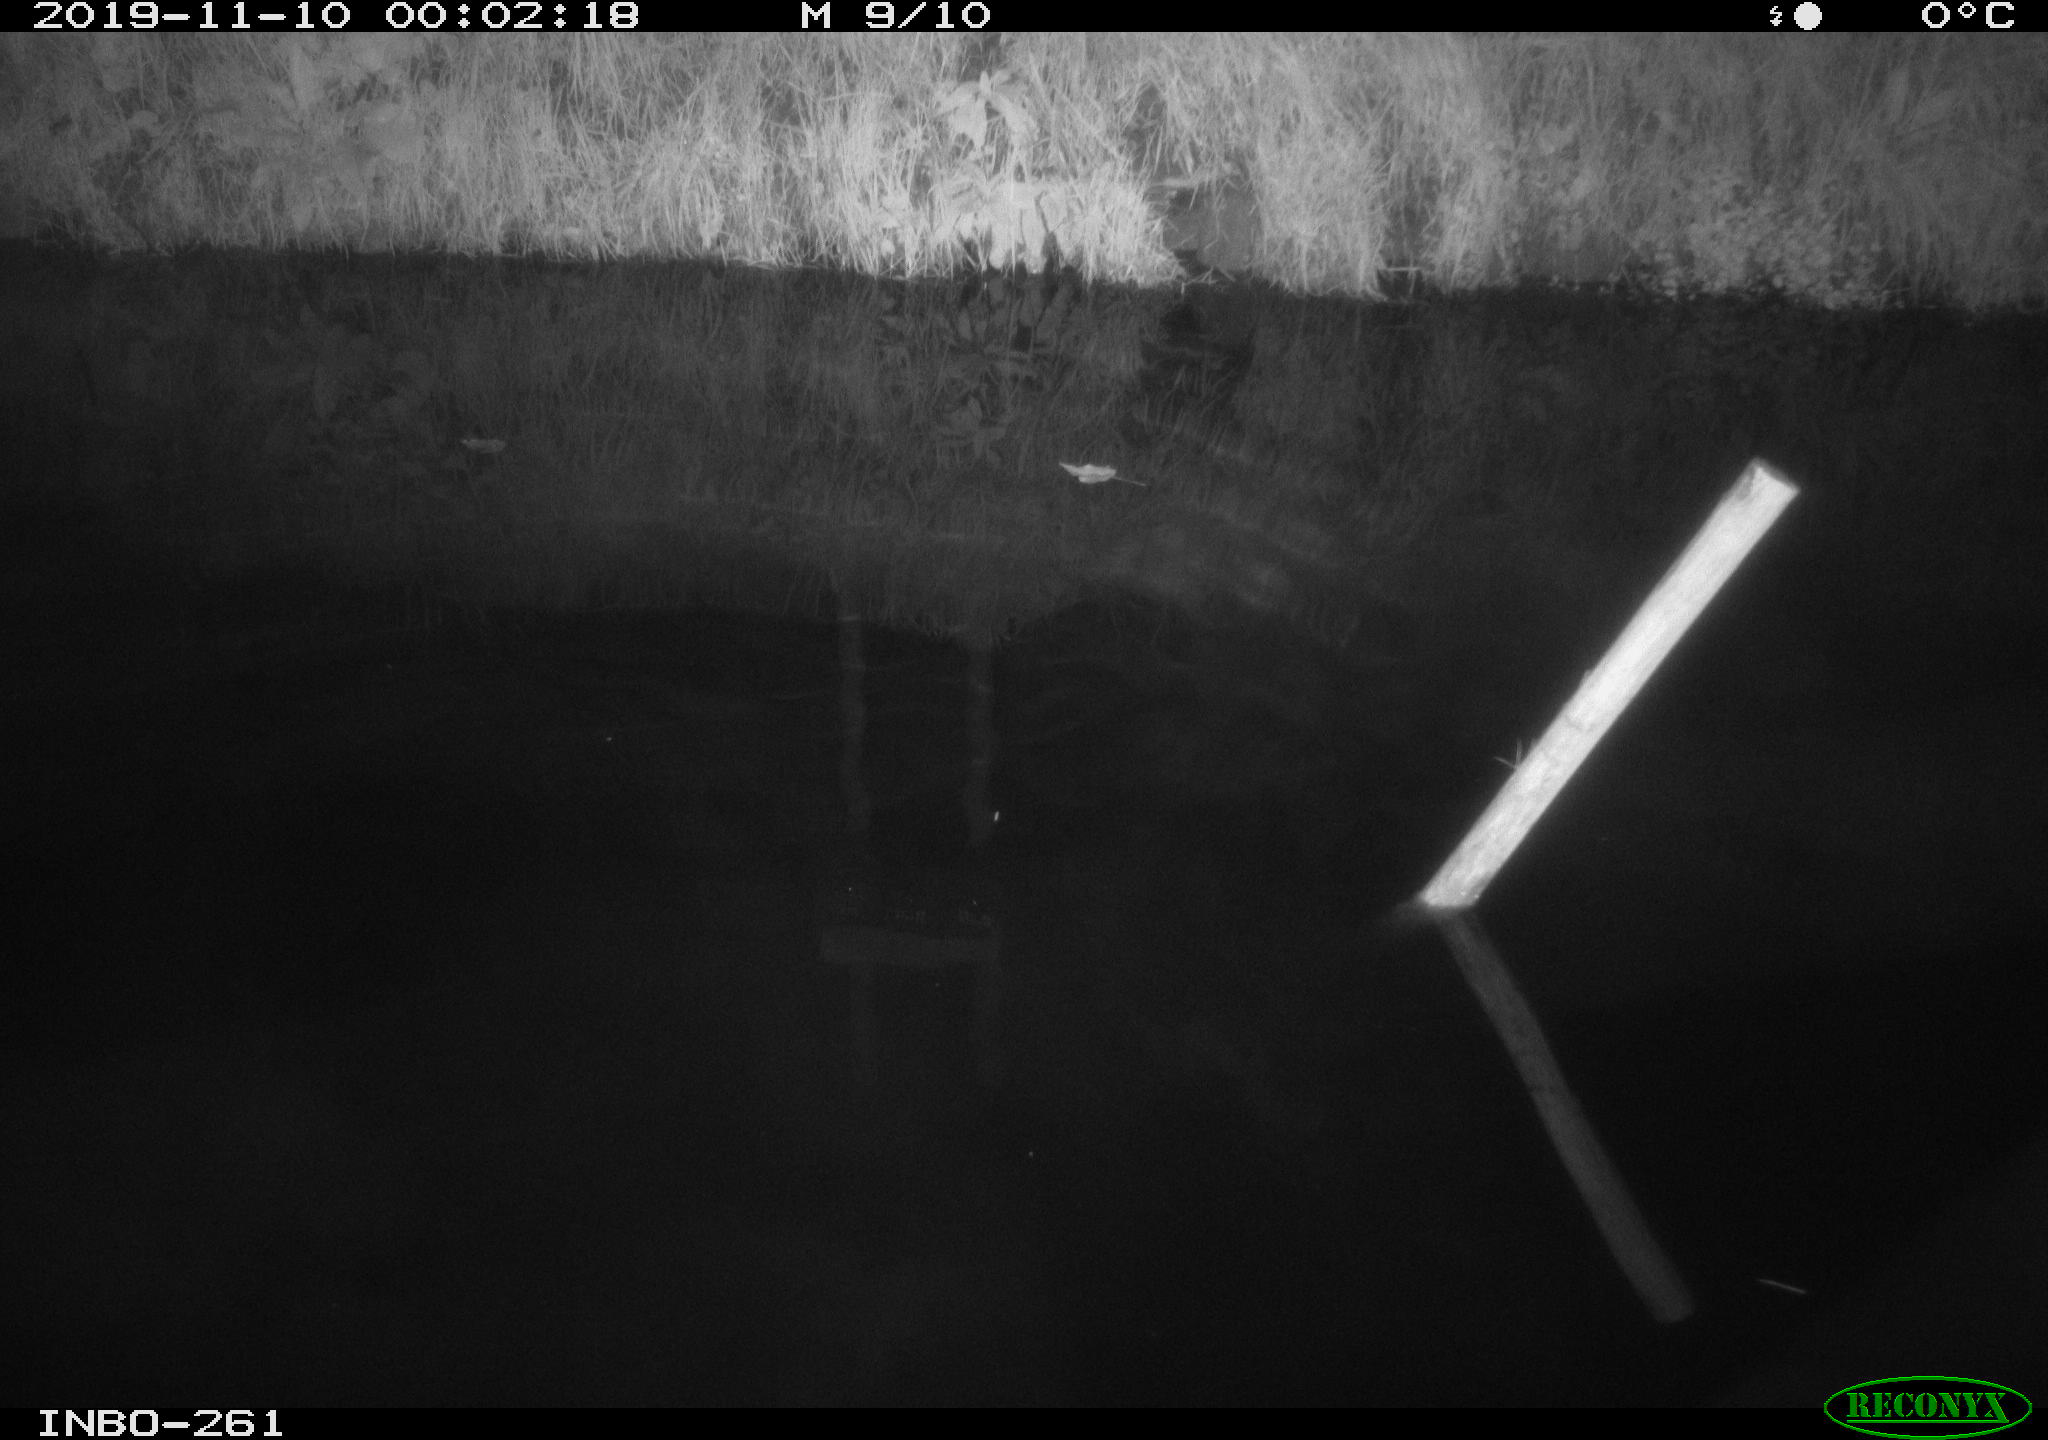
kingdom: Animalia
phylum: Chordata
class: Aves
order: Anseriformes
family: Anatidae
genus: Anas
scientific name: Anas platyrhynchos
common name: Mallard
